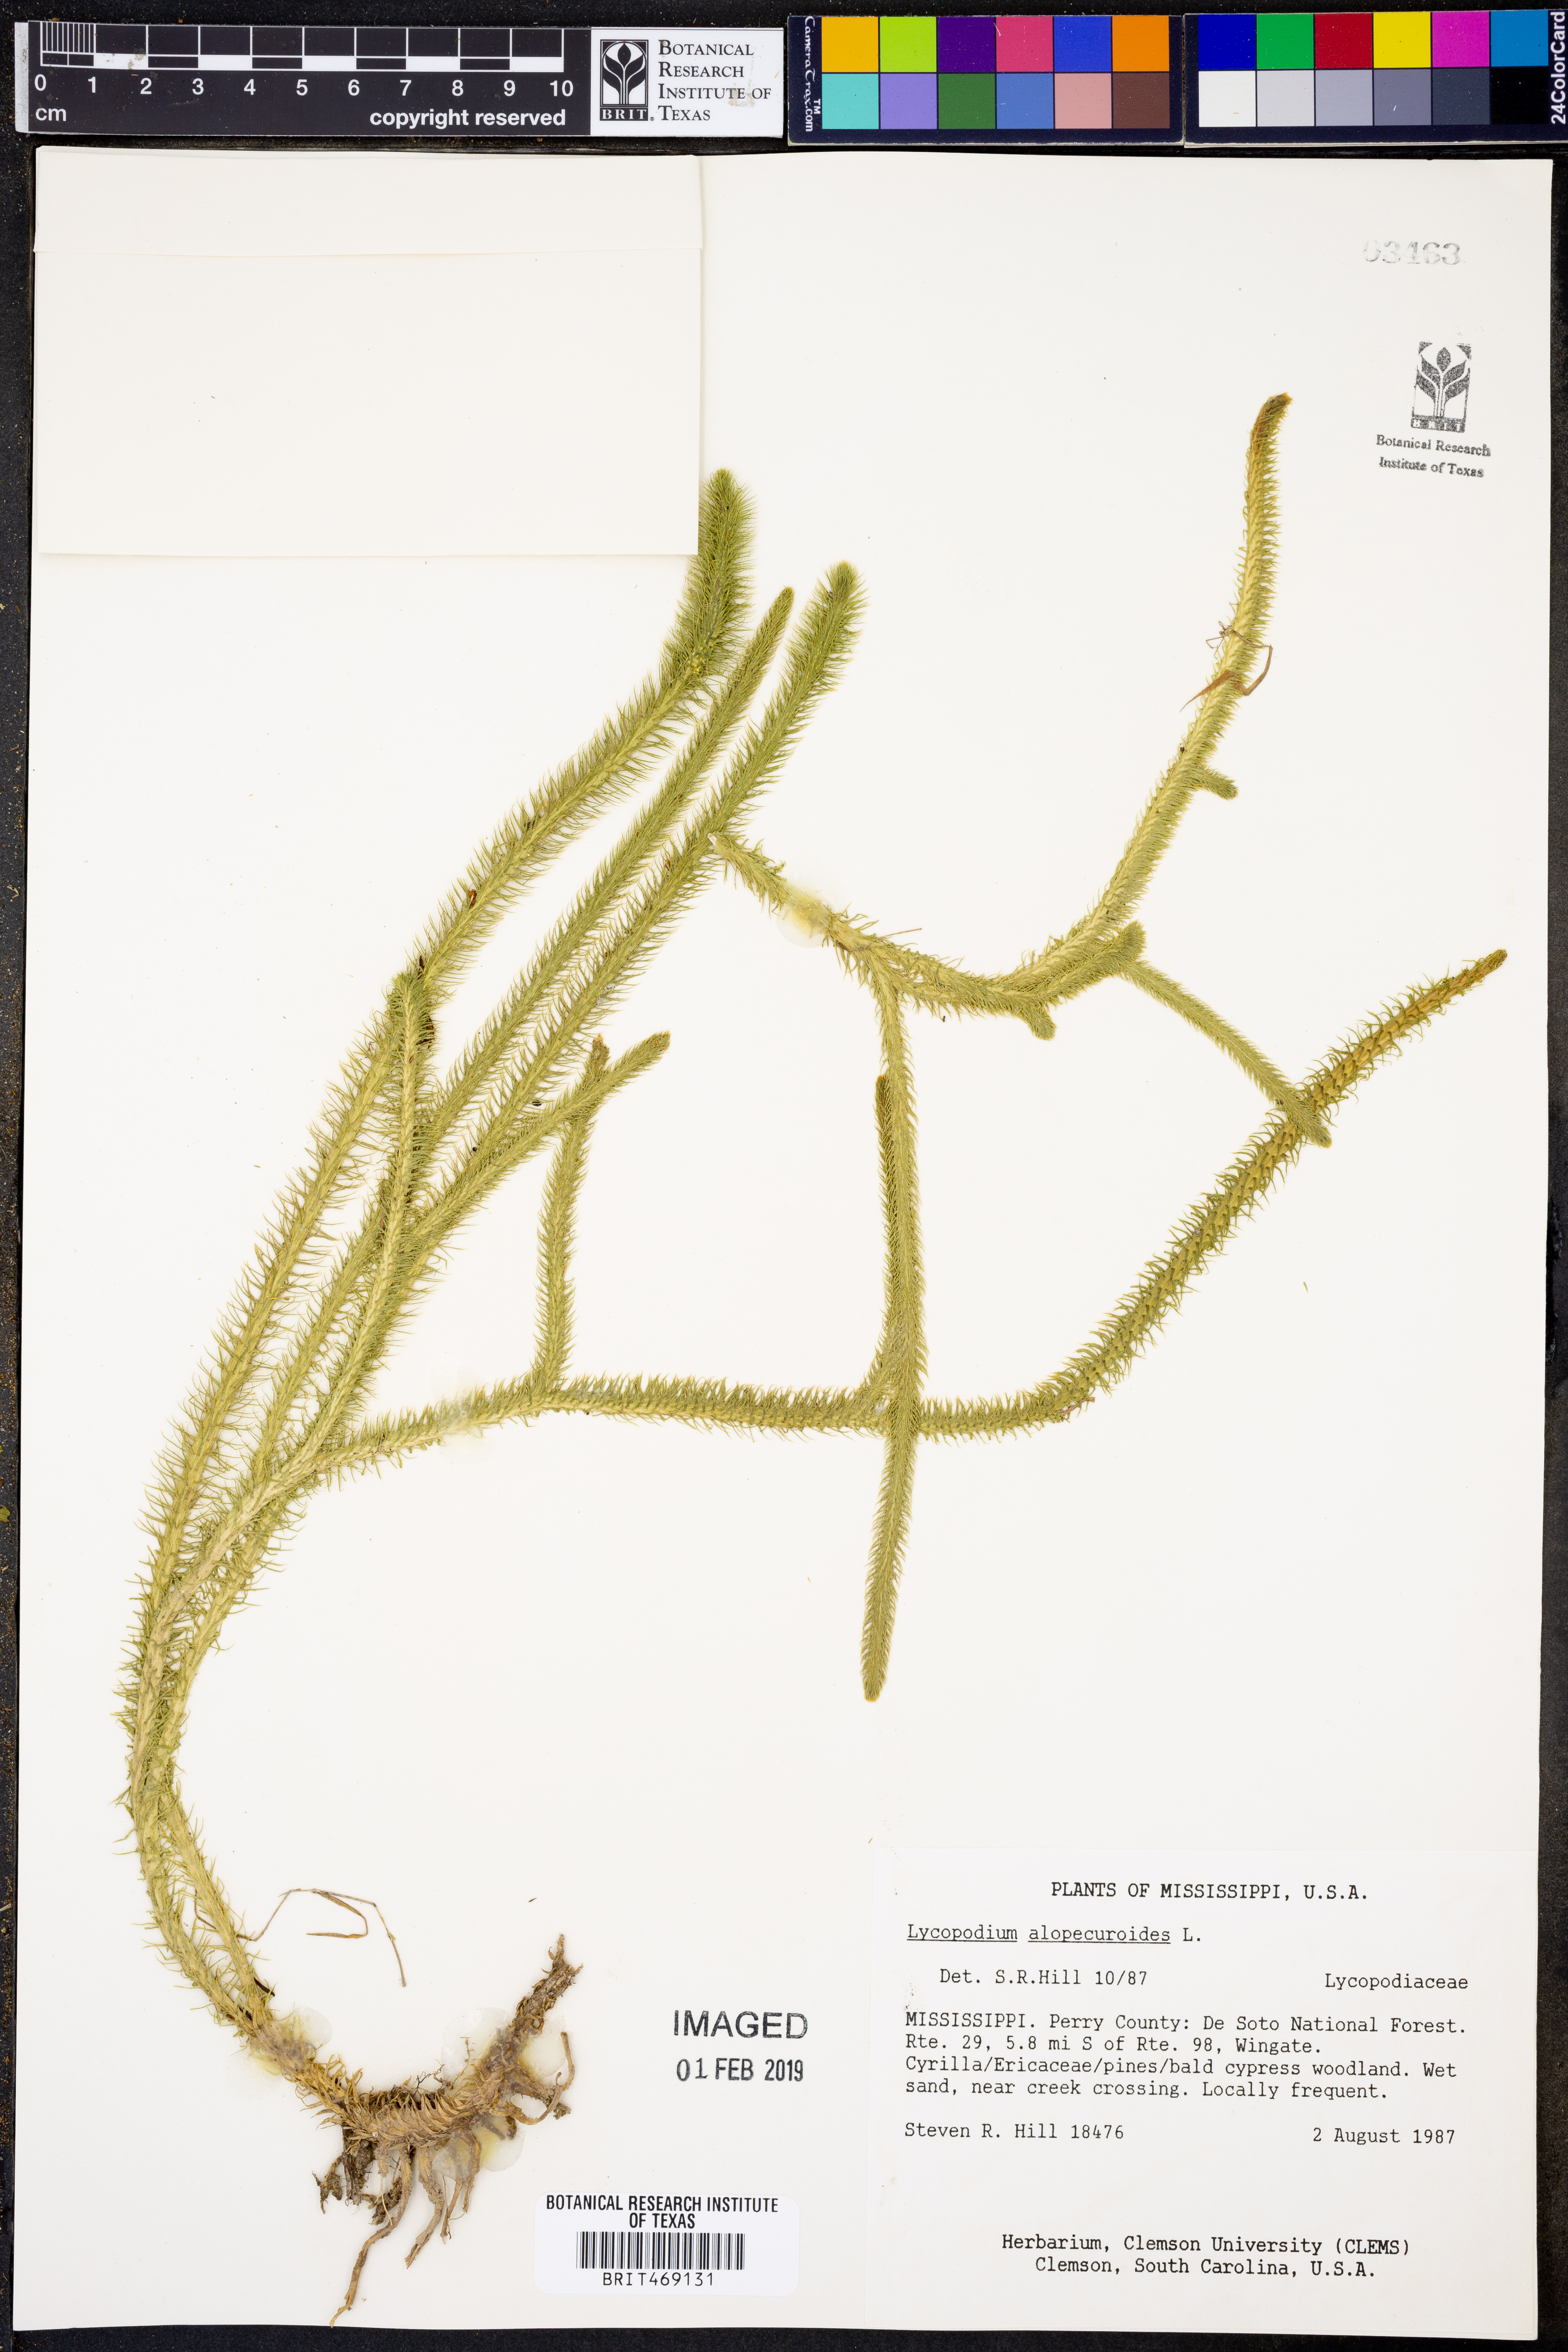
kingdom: Plantae
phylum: Tracheophyta
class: Lycopodiopsida
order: Lycopodiales
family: Lycopodiaceae
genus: Lycopodiella
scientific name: Lycopodiella alopecuroides
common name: Foxtail clubmoss
